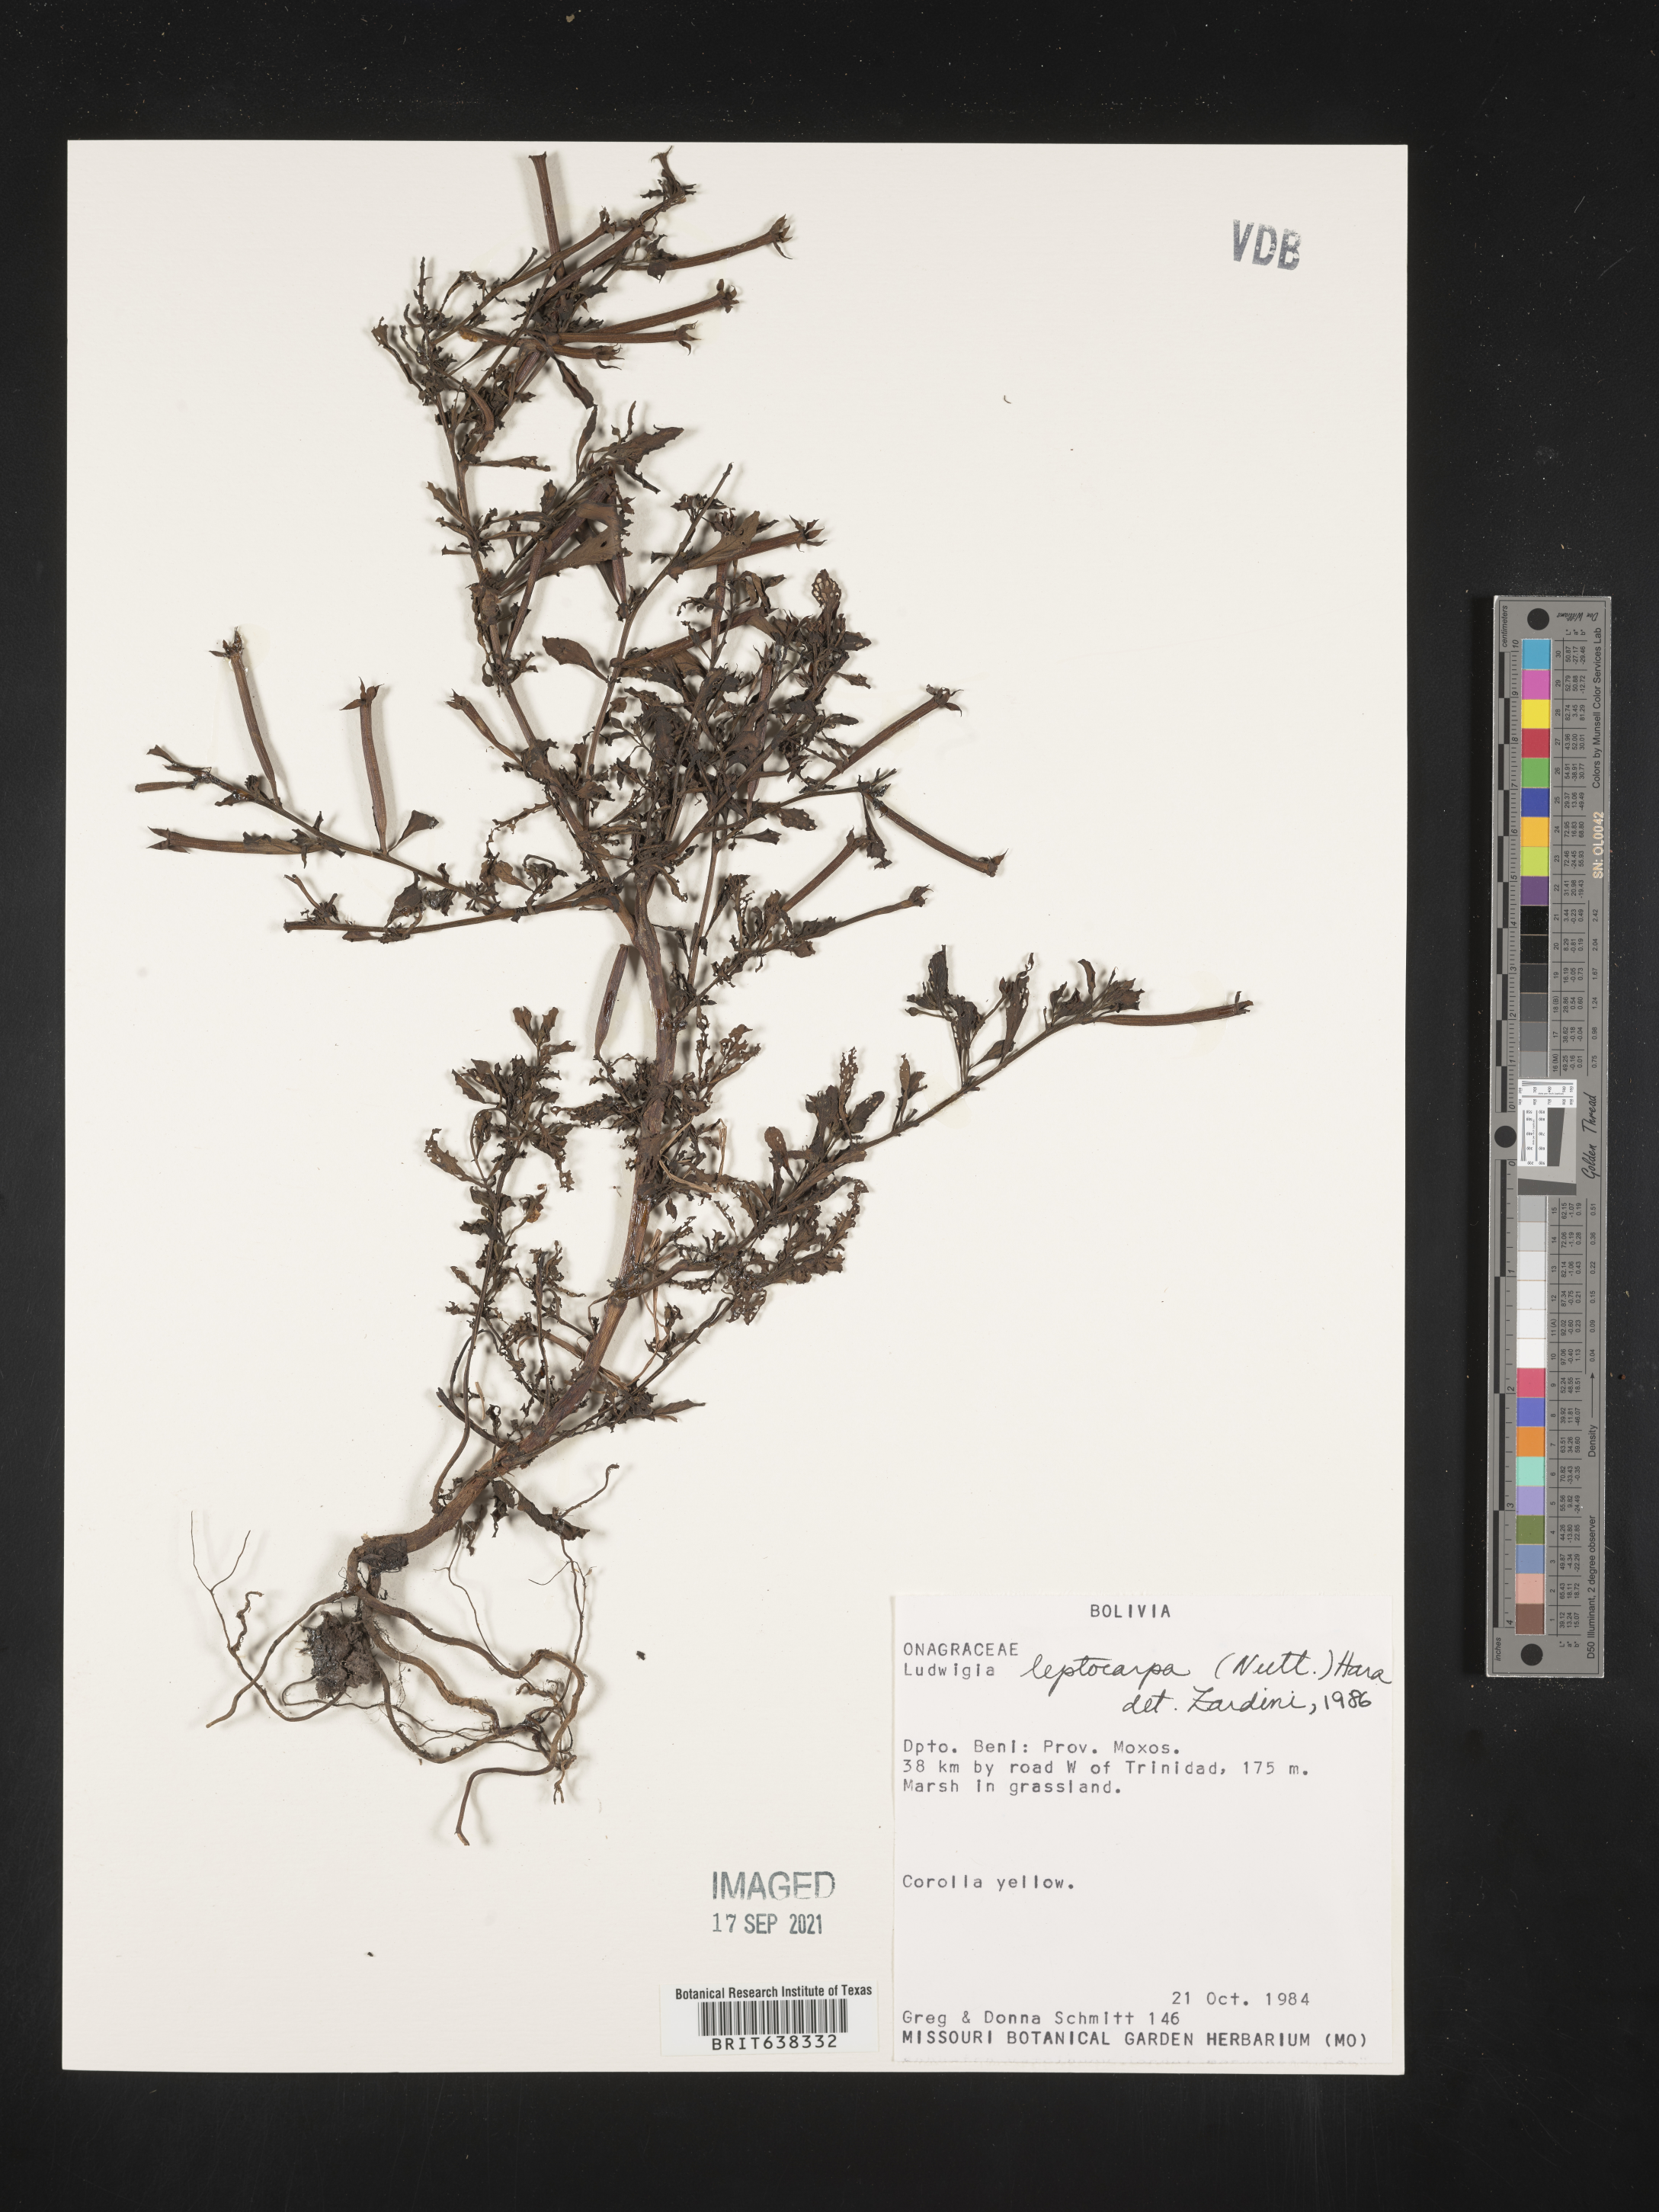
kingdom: Plantae
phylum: Tracheophyta
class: Magnoliopsida
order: Myrtales
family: Onagraceae
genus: Ludwigia
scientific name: Ludwigia
